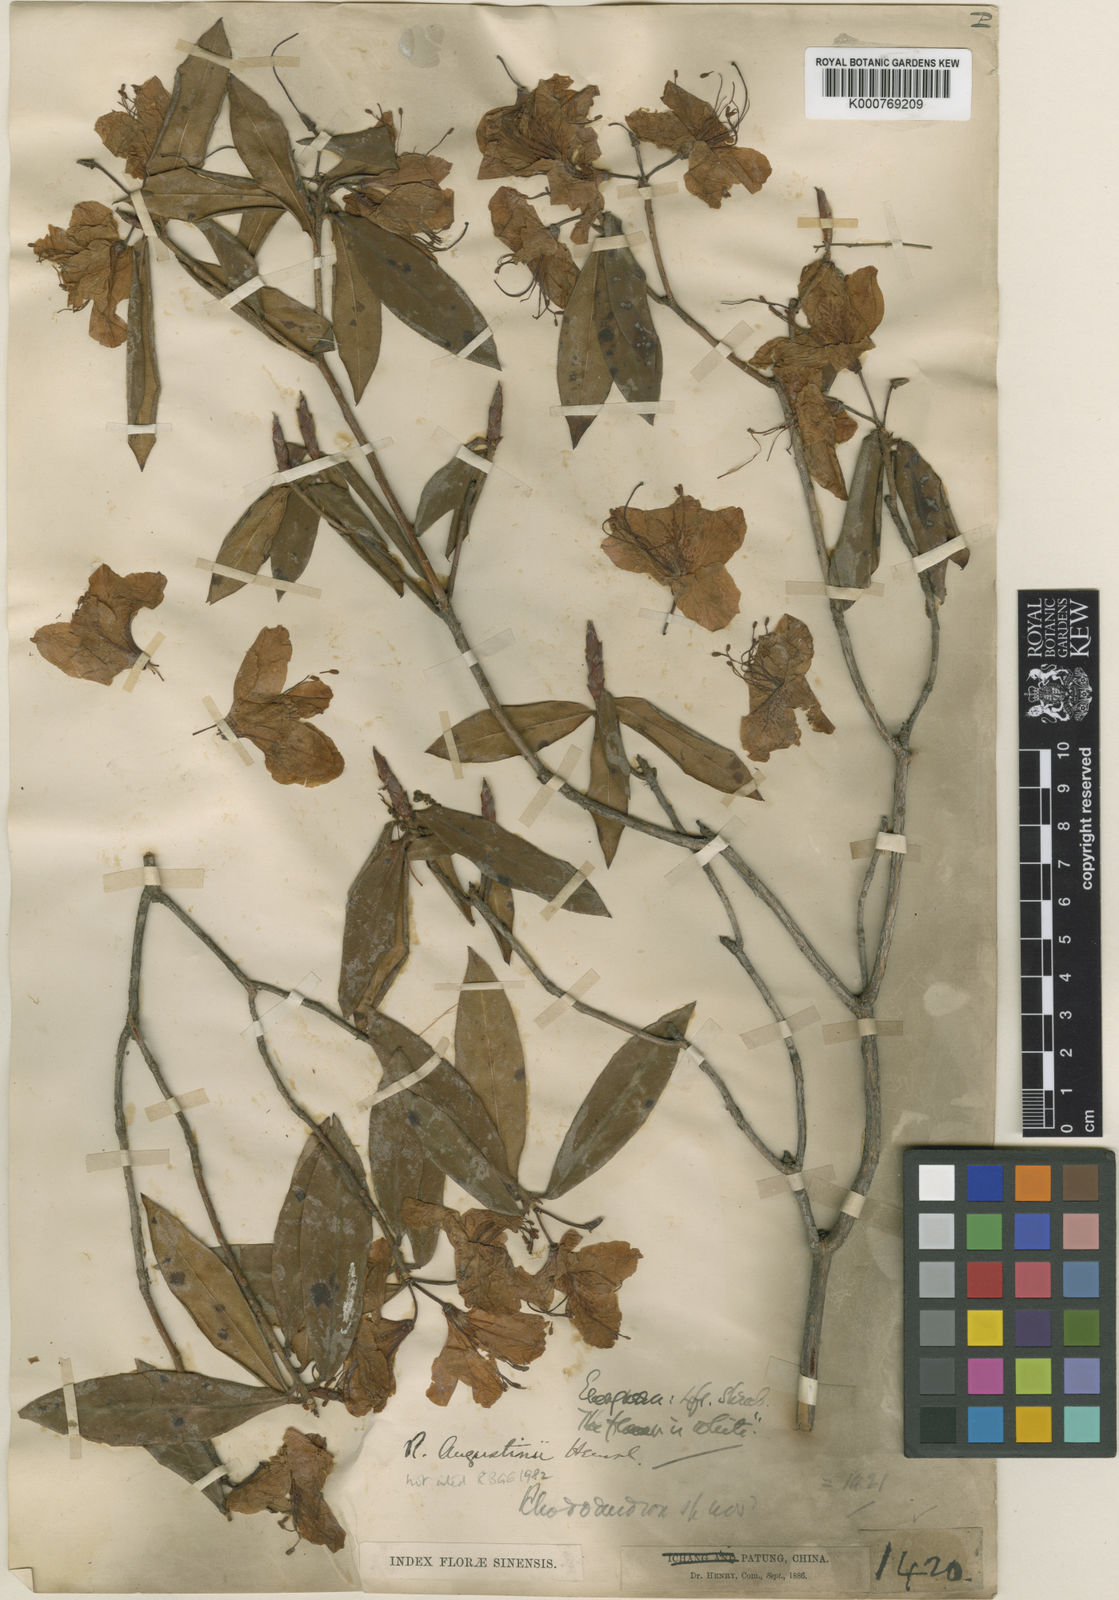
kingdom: Plantae
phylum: Tracheophyta
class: Magnoliopsida
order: Ericales
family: Ericaceae
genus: Rhododendron
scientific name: Rhododendron augustinii
